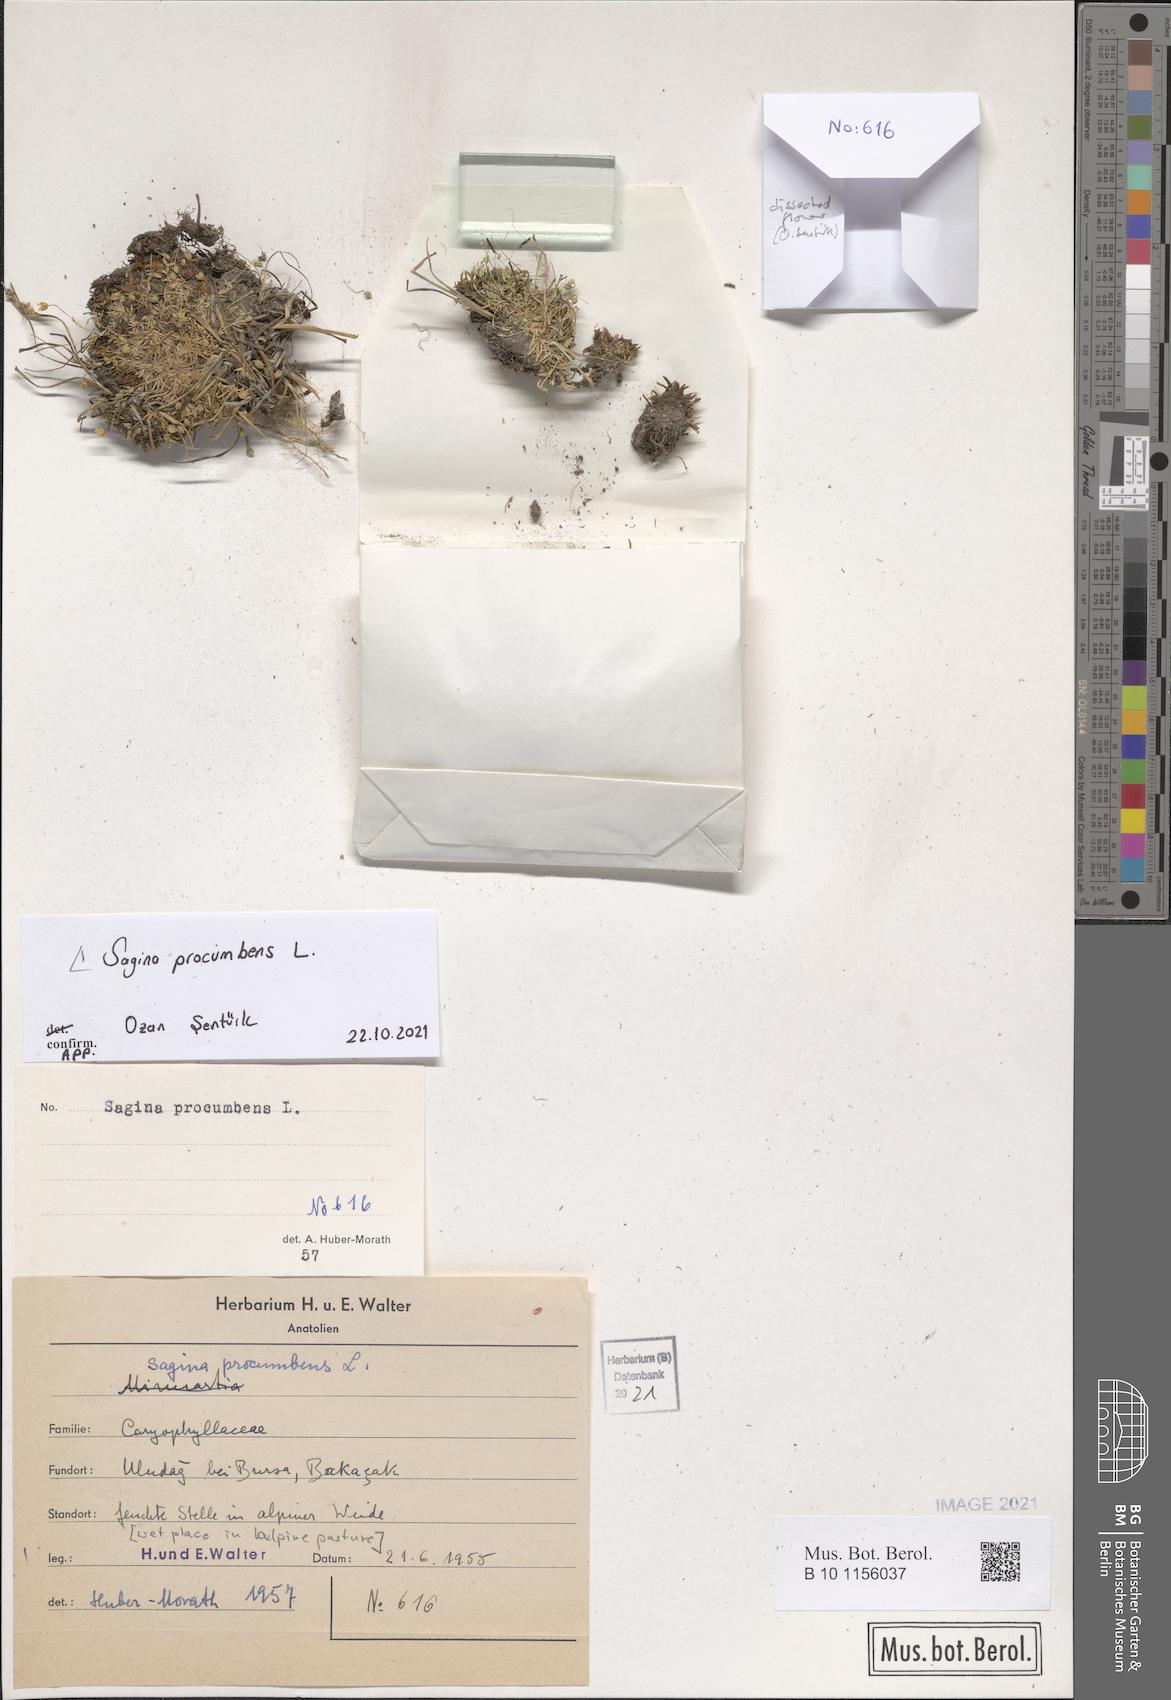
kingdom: Plantae
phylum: Tracheophyta
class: Magnoliopsida
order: Caryophyllales
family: Caryophyllaceae
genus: Sagina
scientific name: Sagina procumbens
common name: Procumbent pearlwort
